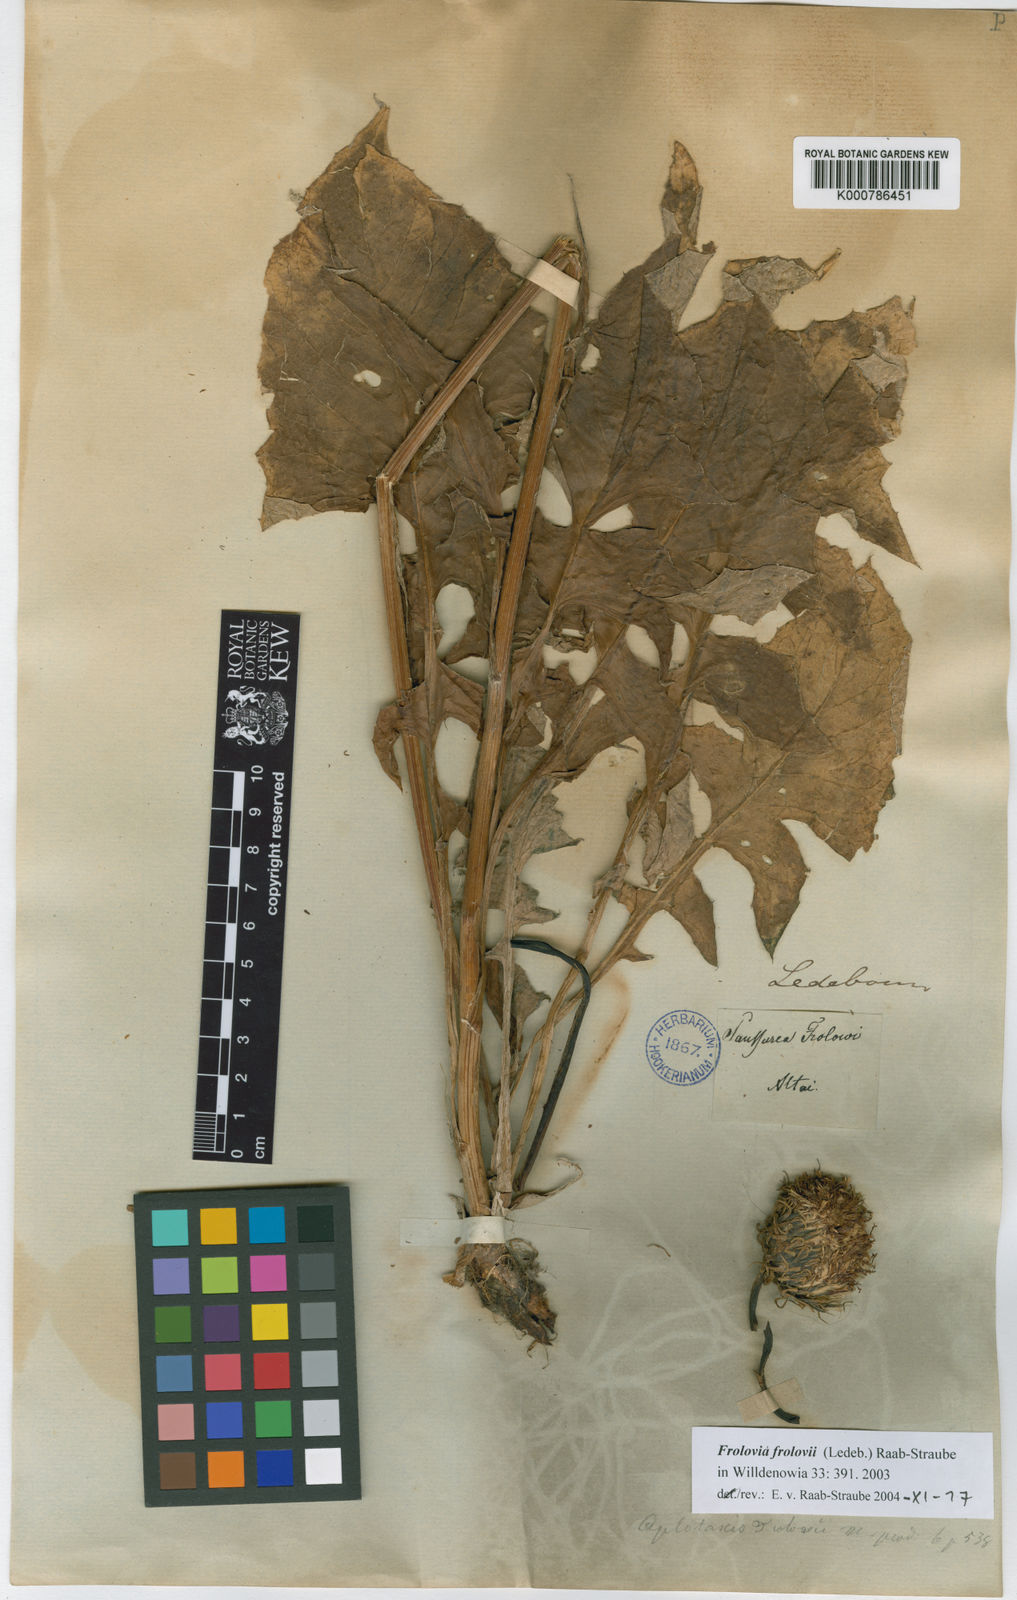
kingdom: Plantae
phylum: Tracheophyta
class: Magnoliopsida
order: Asterales
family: Asteraceae
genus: Saussurea
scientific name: Saussurea
